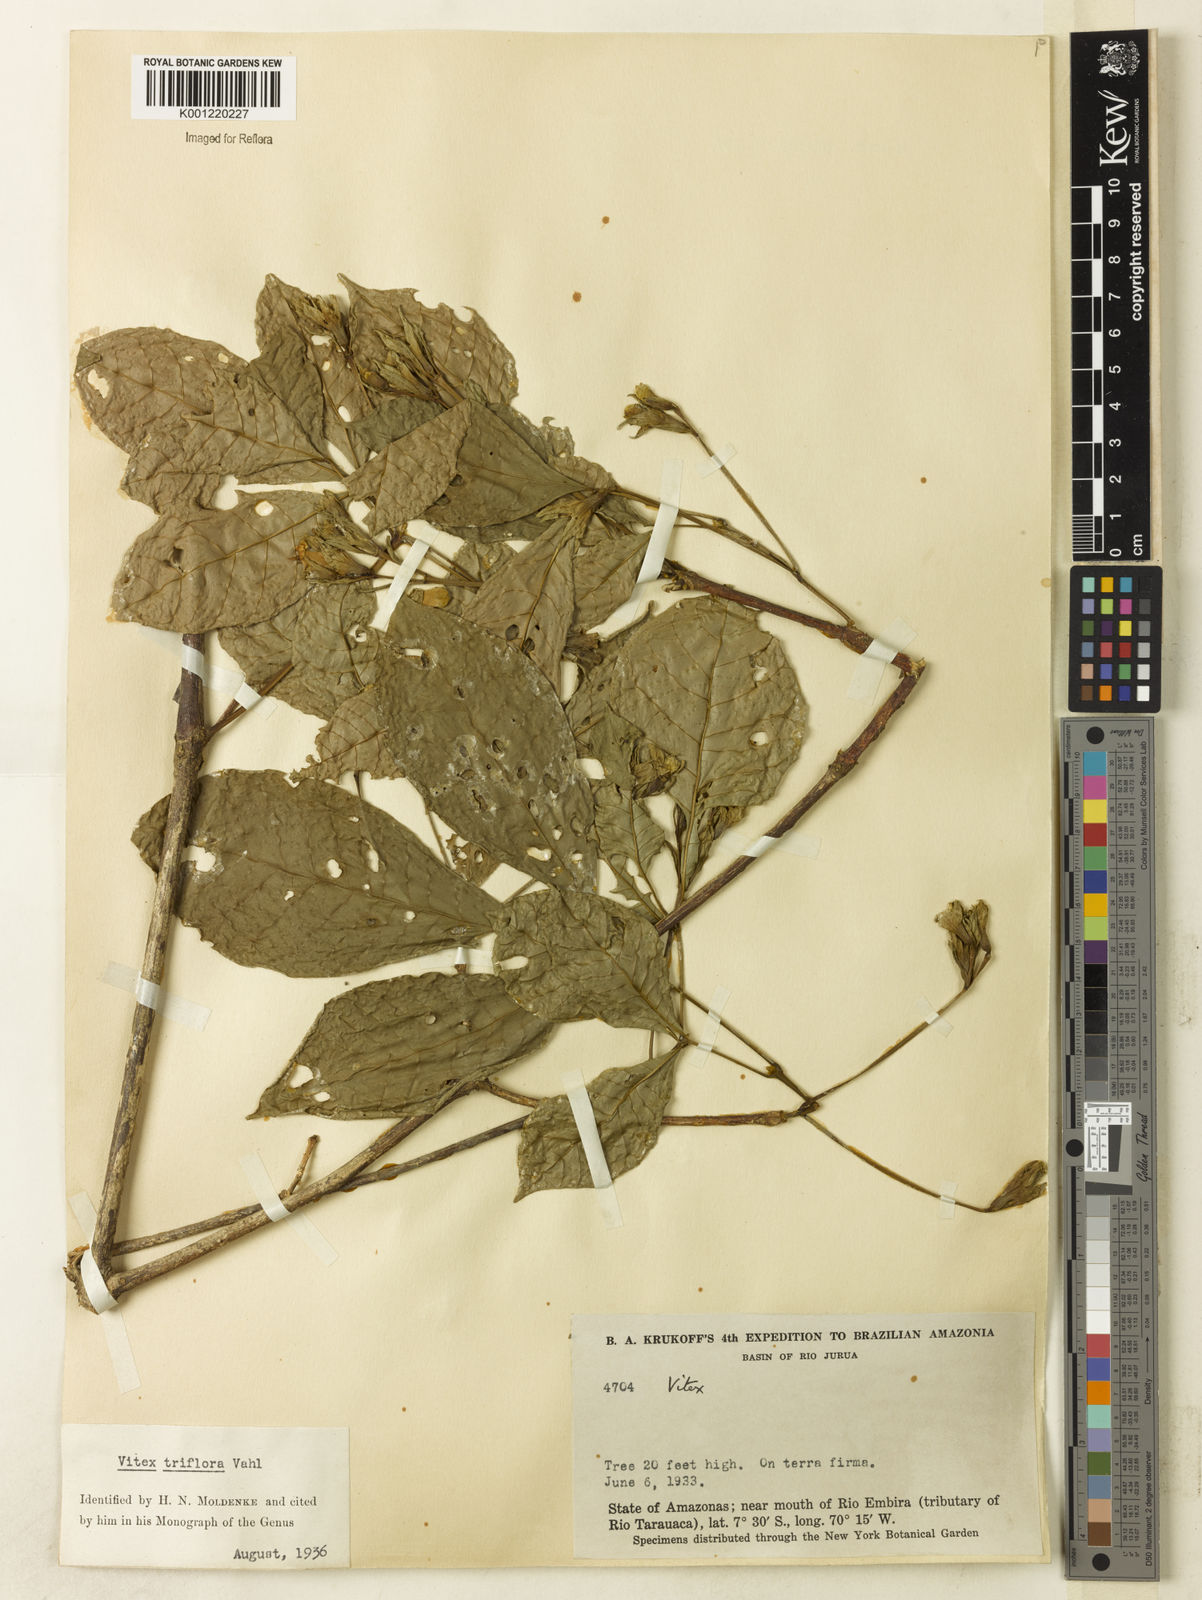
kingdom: Plantae
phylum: Tracheophyta
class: Magnoliopsida
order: Lamiales
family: Lamiaceae
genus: Vitex
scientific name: Vitex triflora
